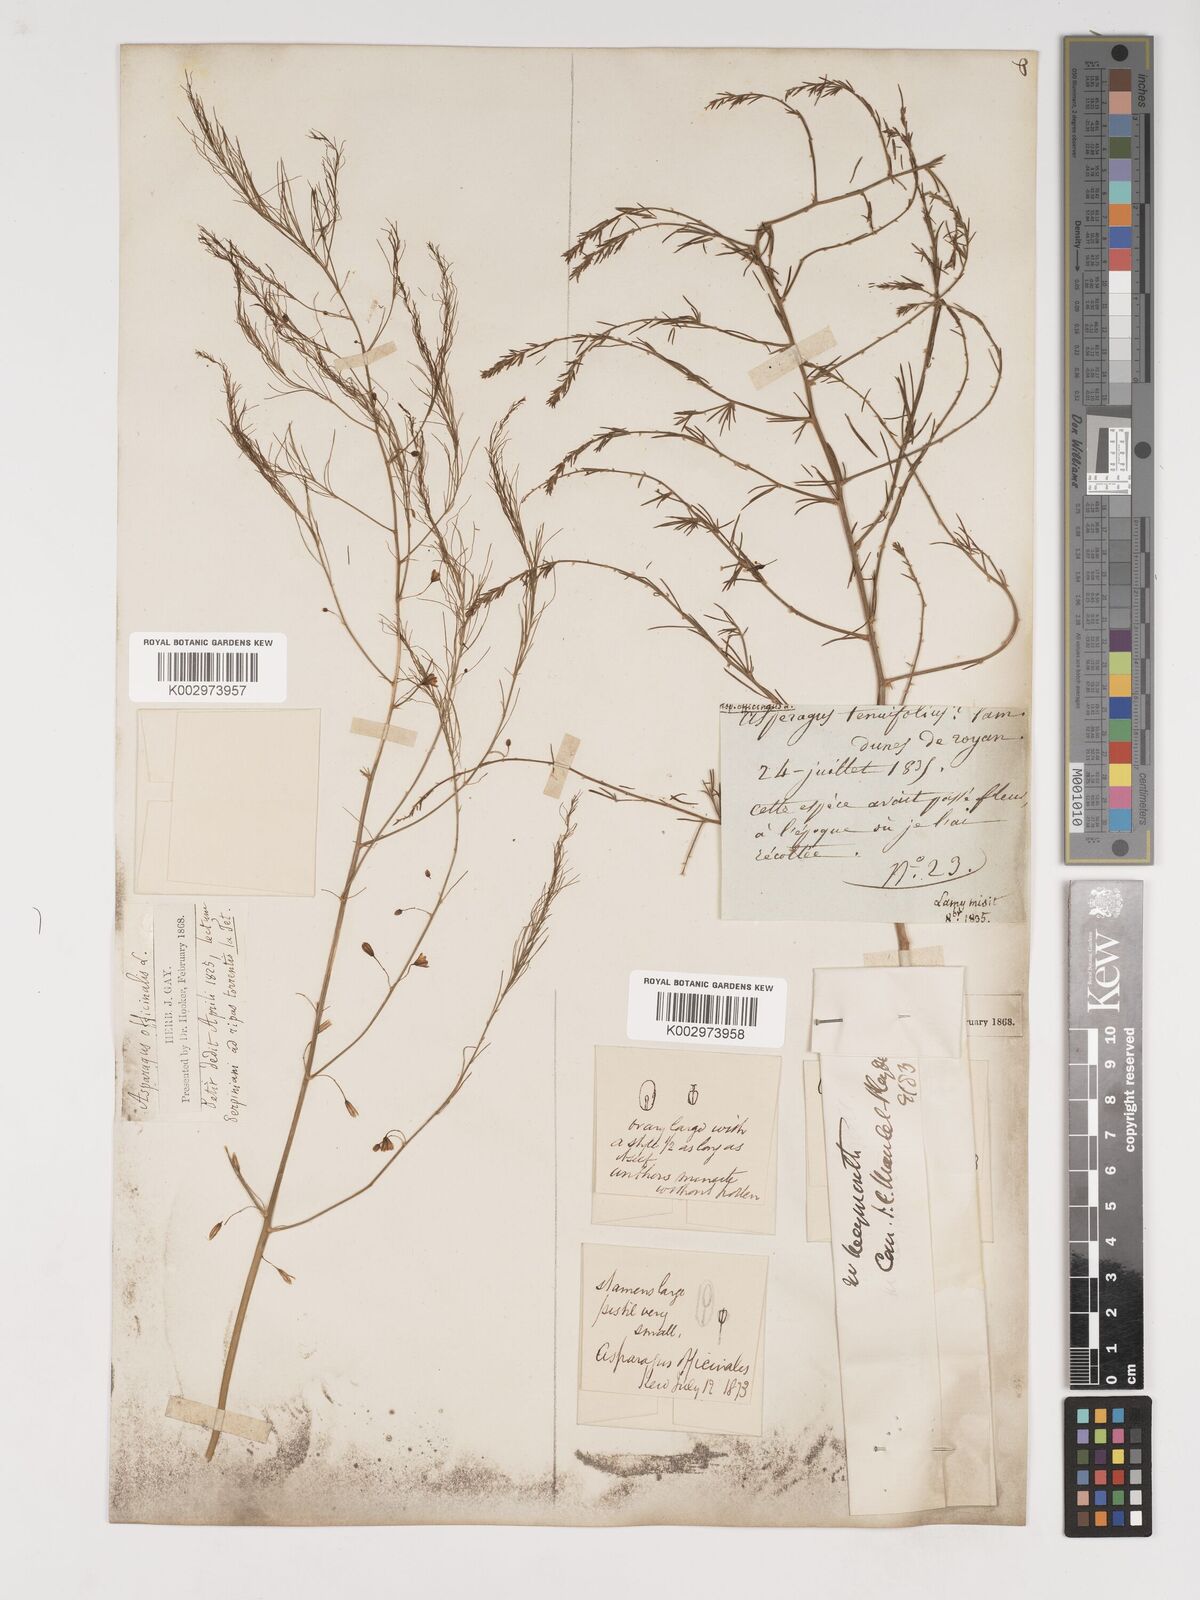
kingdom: Plantae
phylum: Tracheophyta
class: Liliopsida
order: Asparagales
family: Asparagaceae
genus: Asparagus
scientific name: Asparagus officinalis
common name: Garden asparagus
